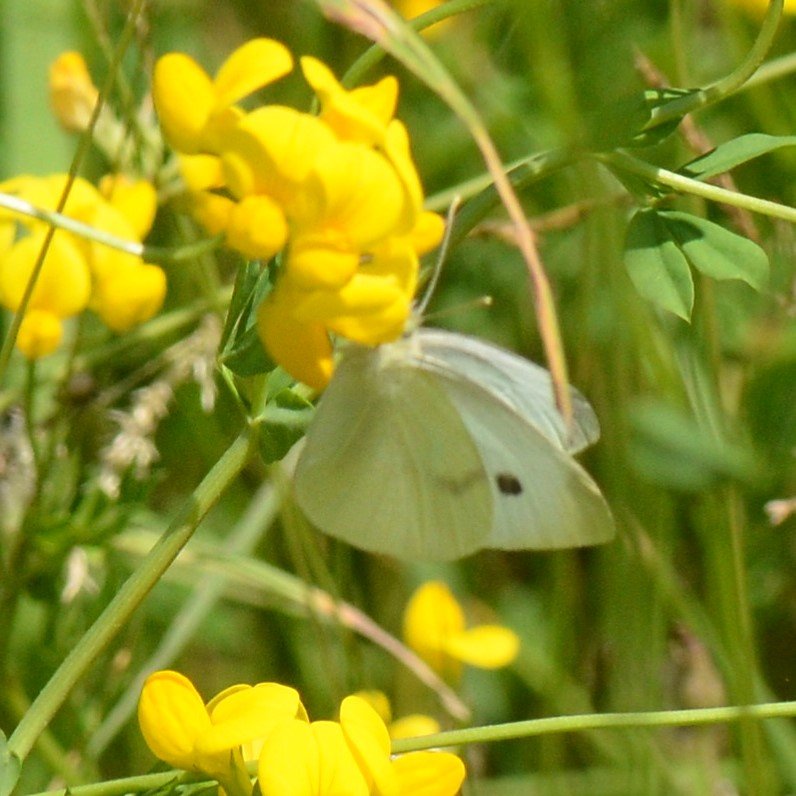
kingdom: Animalia
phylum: Arthropoda
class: Insecta
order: Lepidoptera
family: Pieridae
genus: Pieris
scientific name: Pieris rapae
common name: Cabbage White
